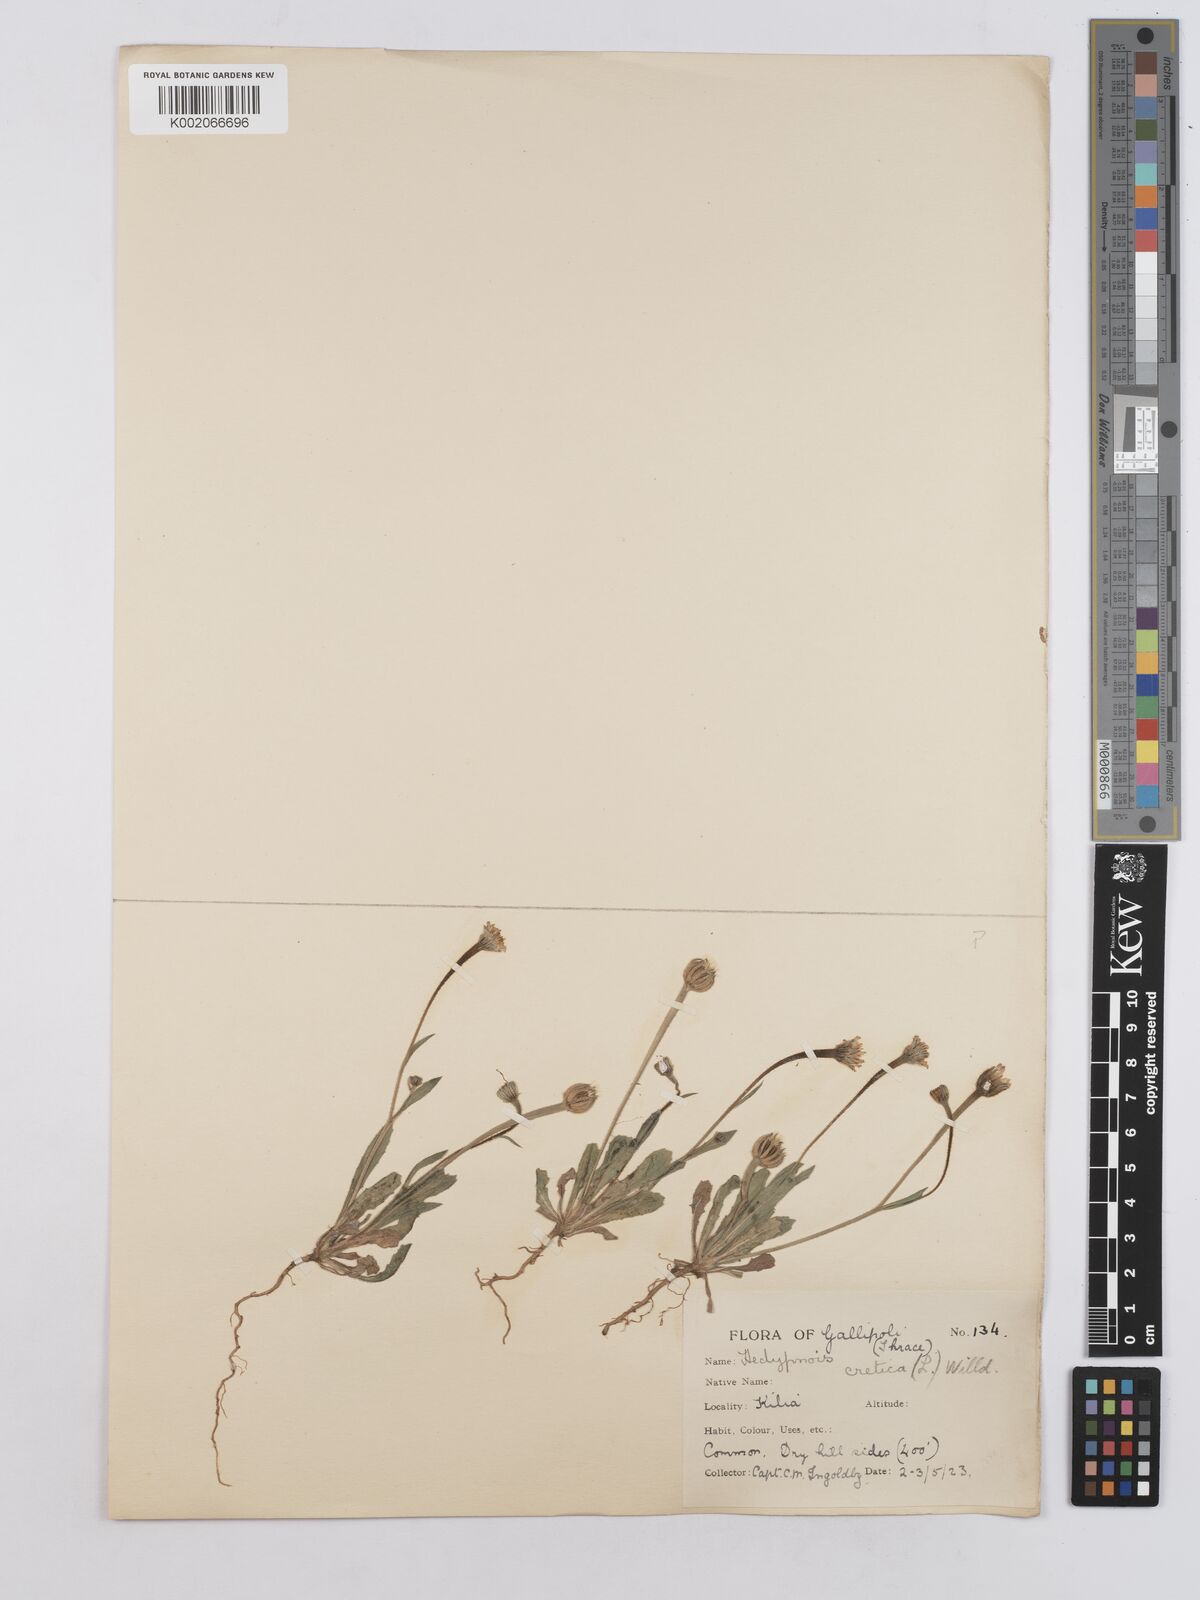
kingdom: Plantae
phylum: Tracheophyta
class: Magnoliopsida
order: Asterales
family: Asteraceae
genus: Hedypnois
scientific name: Hedypnois rhagadioloides
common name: Cretan weed
